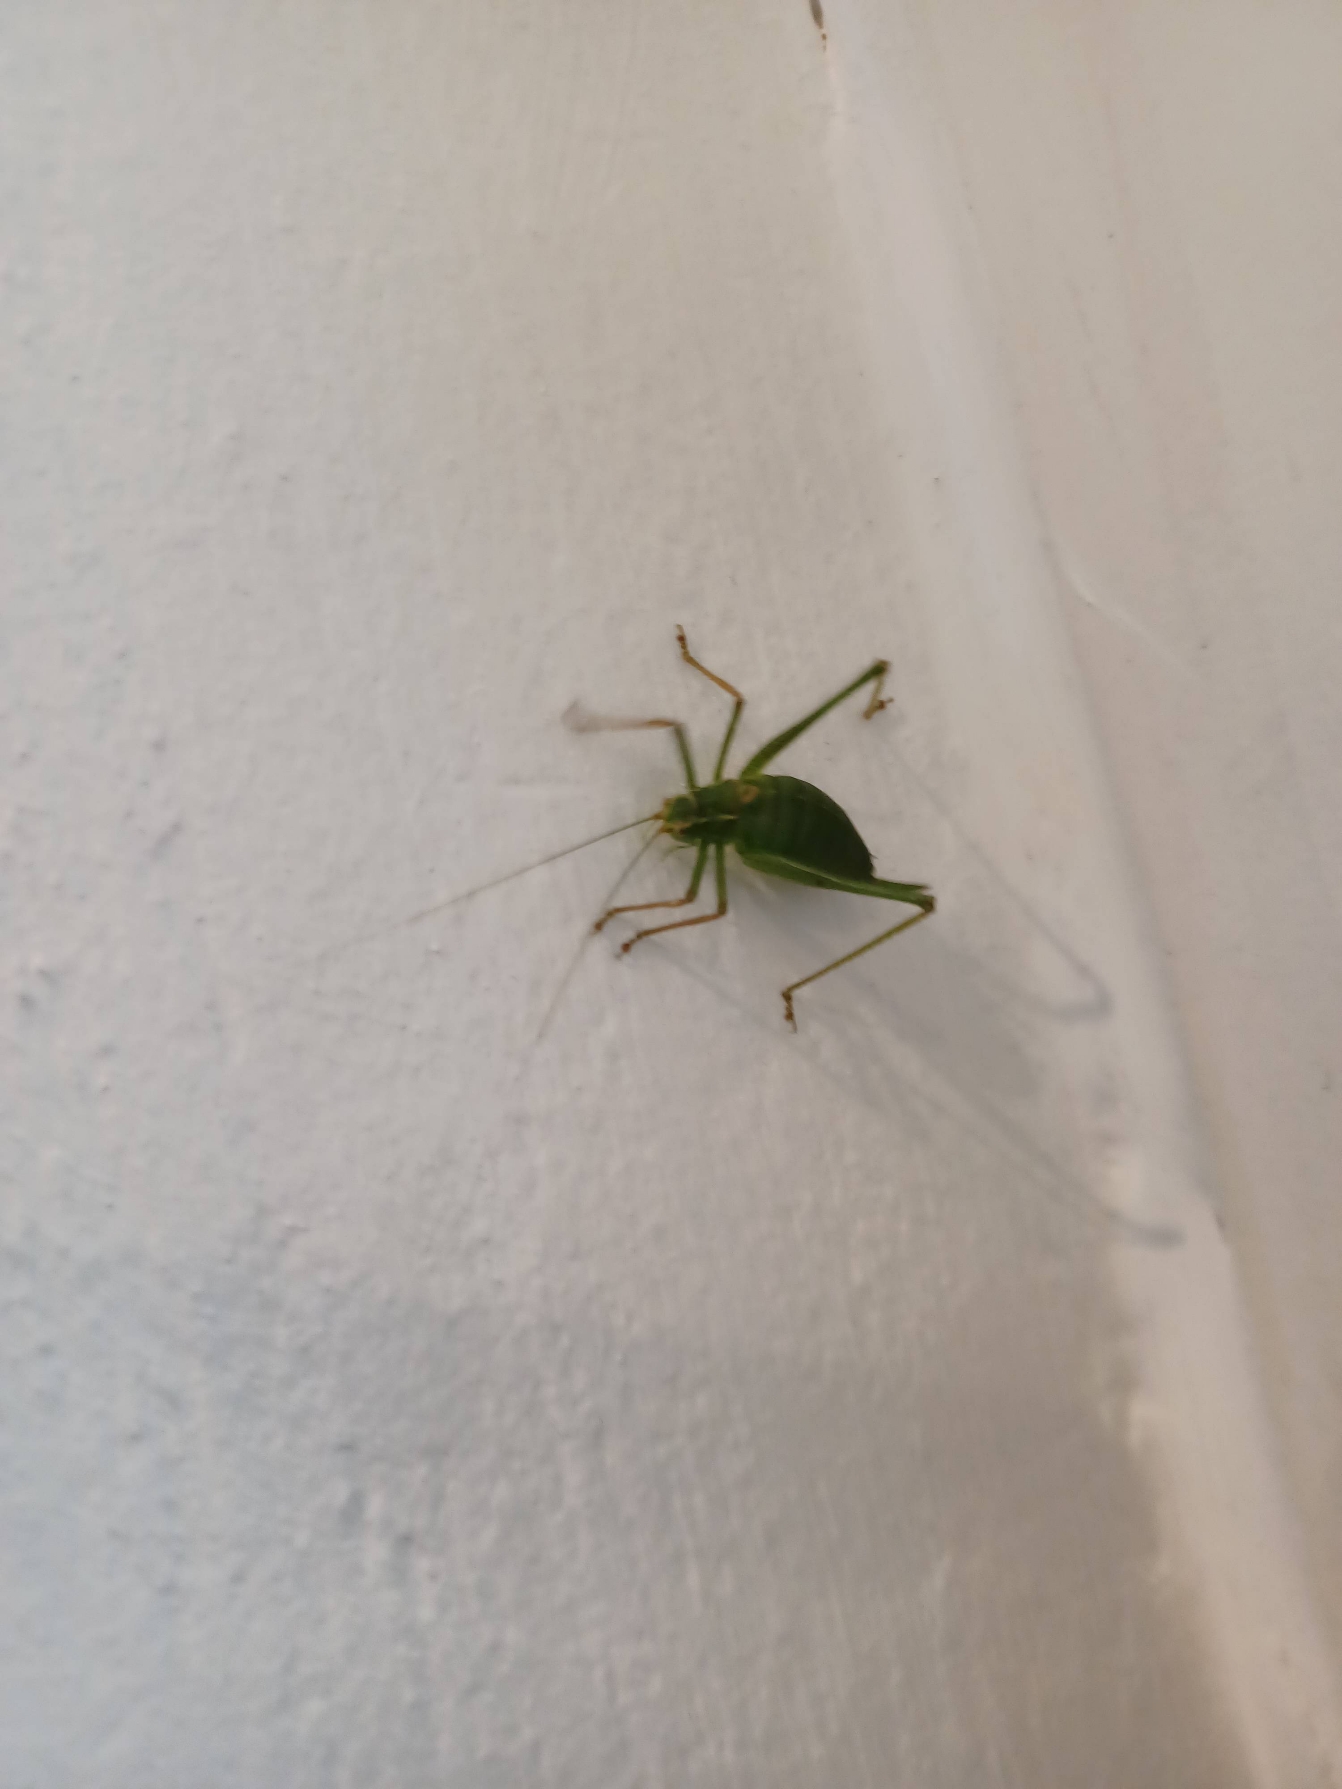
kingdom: Animalia
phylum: Arthropoda
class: Insecta
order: Orthoptera
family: Tettigoniidae
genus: Leptophyes
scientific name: Leptophyes punctatissima
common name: Krumknivgræshoppe
